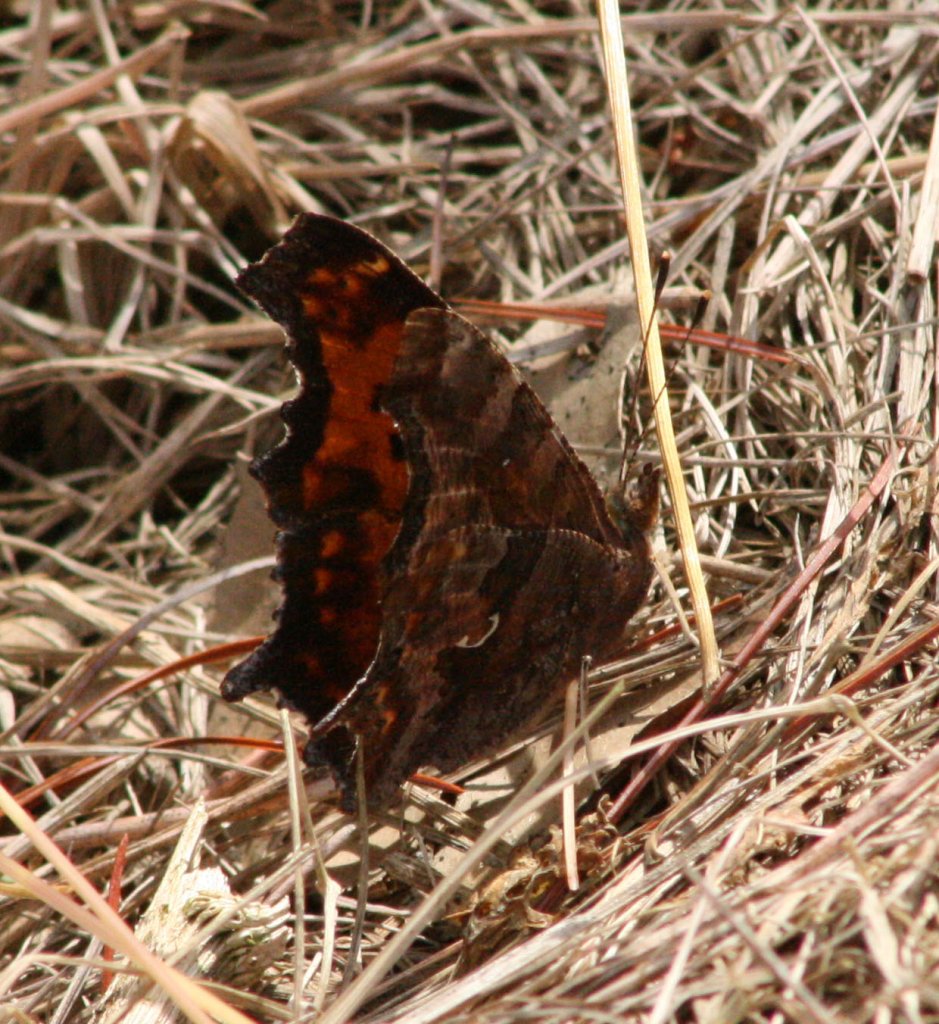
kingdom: Animalia
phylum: Arthropoda
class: Insecta
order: Lepidoptera
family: Nymphalidae
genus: Polygonia
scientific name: Polygonia comma
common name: Eastern Comma
